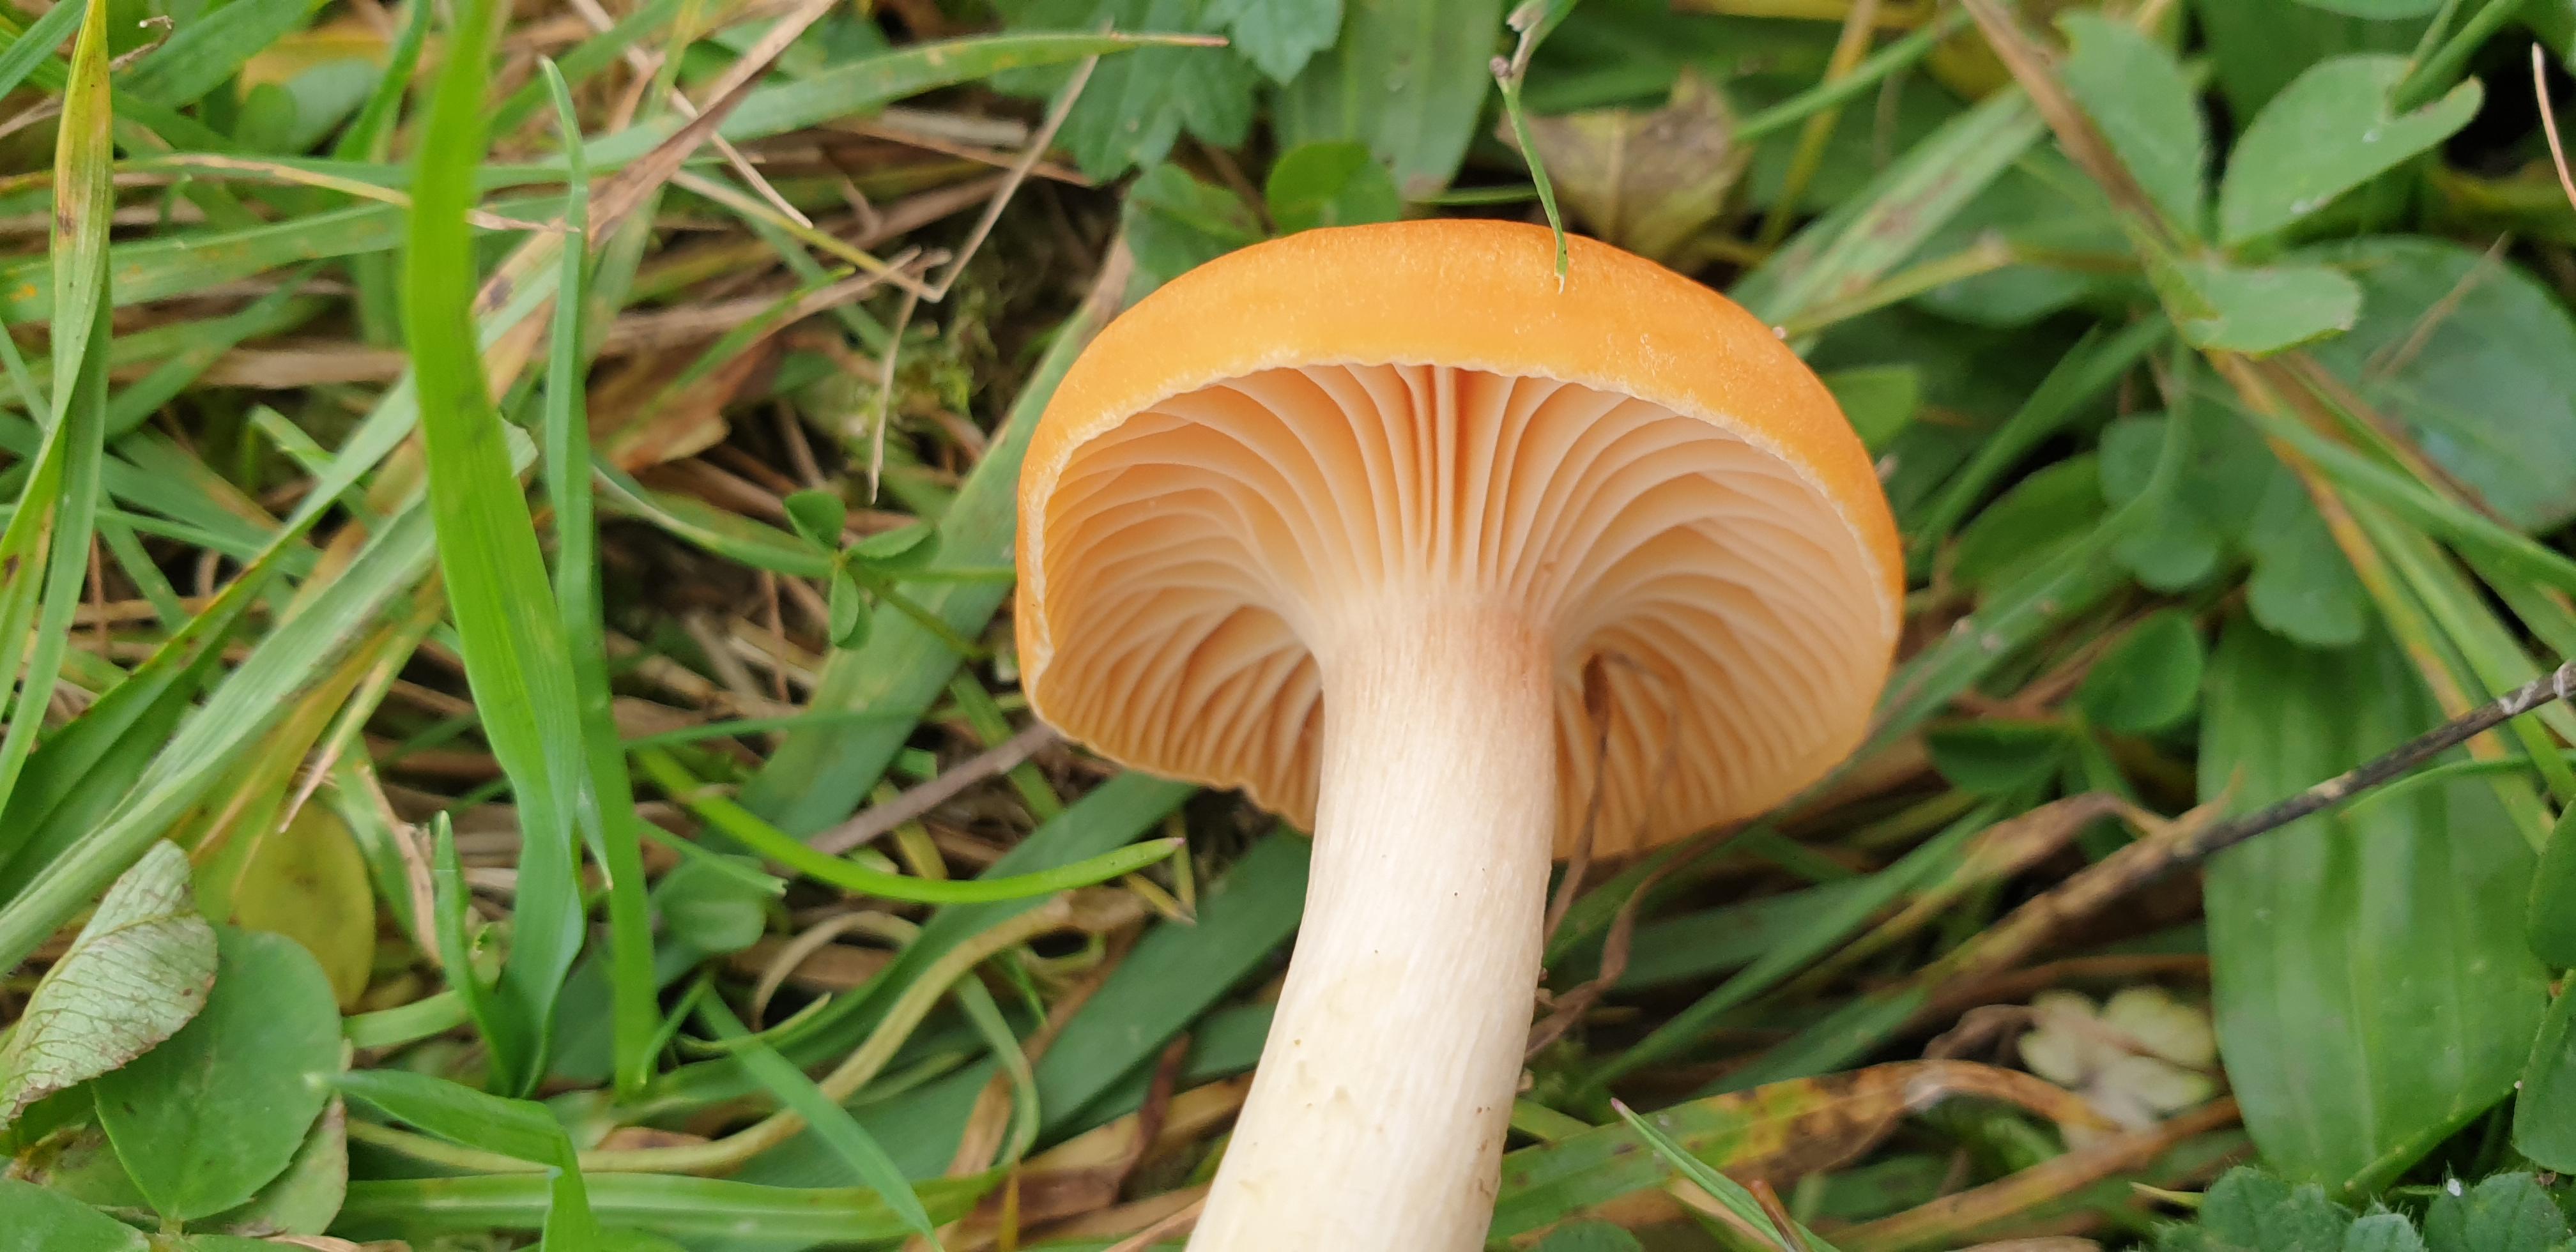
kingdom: Fungi
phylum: Basidiomycota
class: Agaricomycetes
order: Agaricales
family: Hygrophoraceae
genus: Cuphophyllus
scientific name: Cuphophyllus pratensis
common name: eng-vokshat
